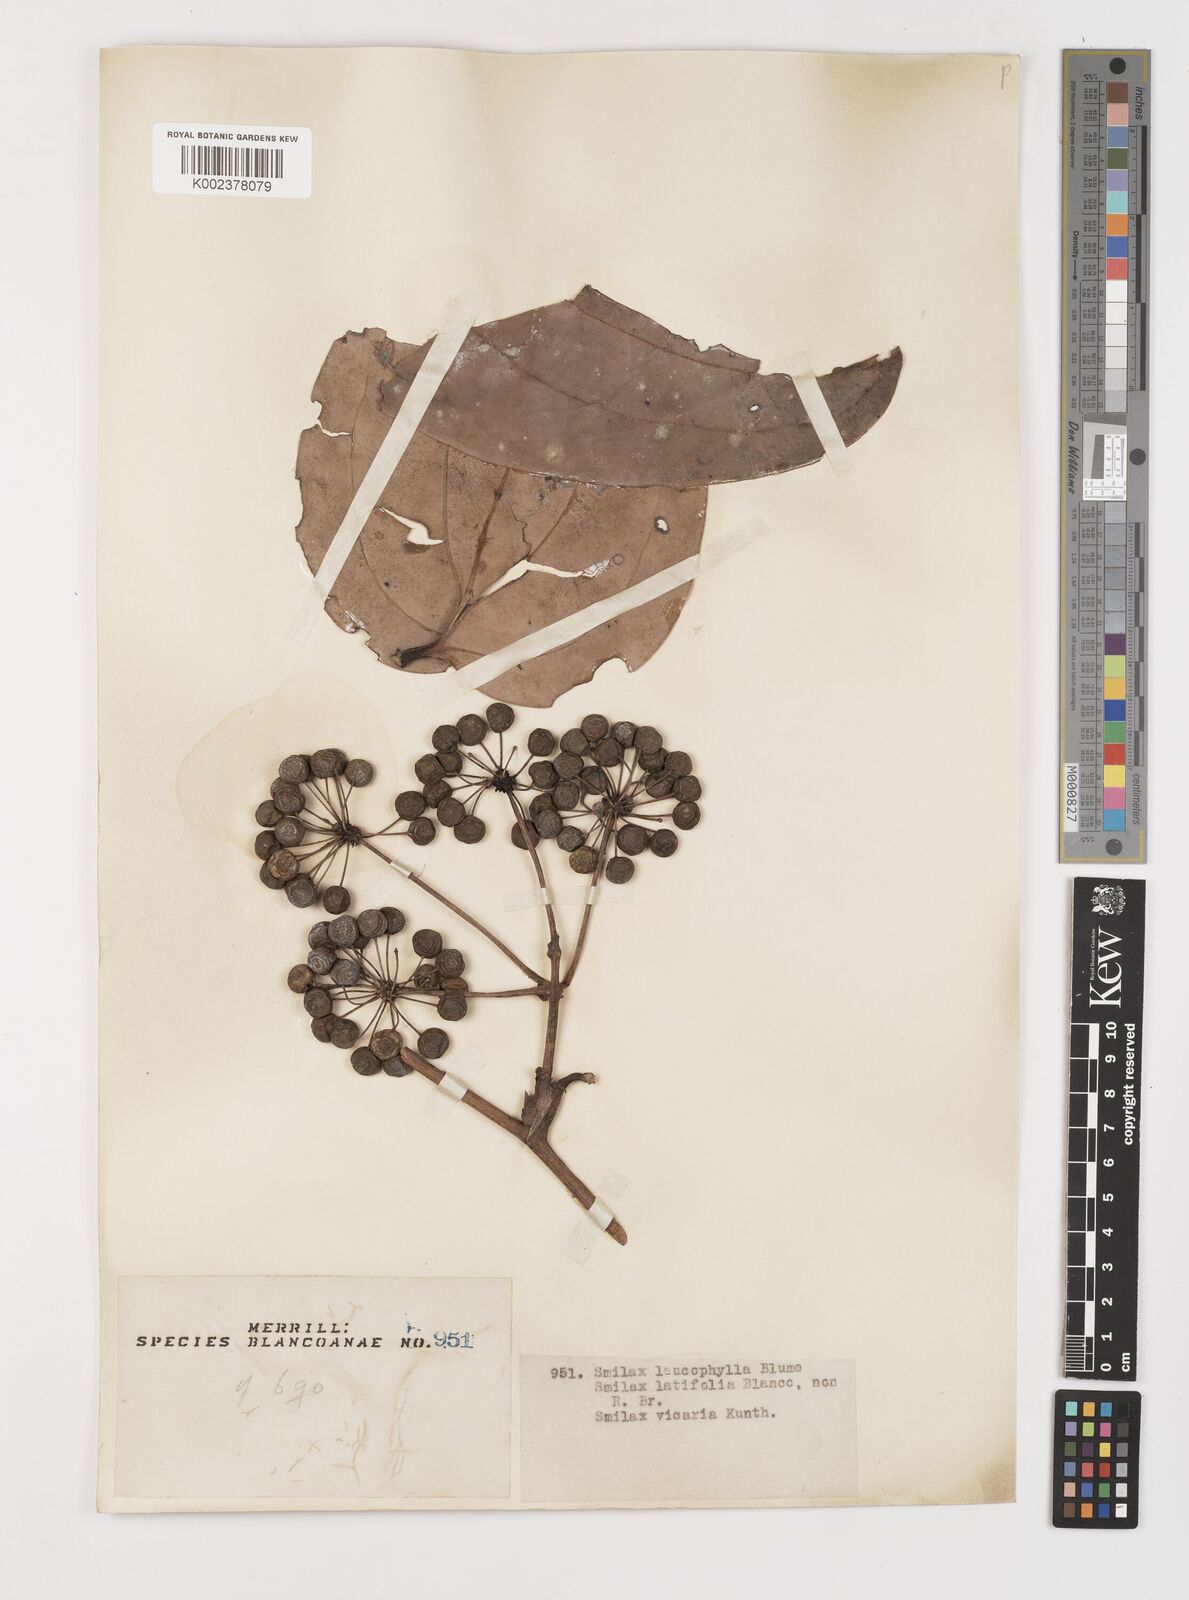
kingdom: Plantae
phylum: Tracheophyta
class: Liliopsida
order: Liliales
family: Smilacaceae
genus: Smilax
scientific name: Smilax leucophylla
